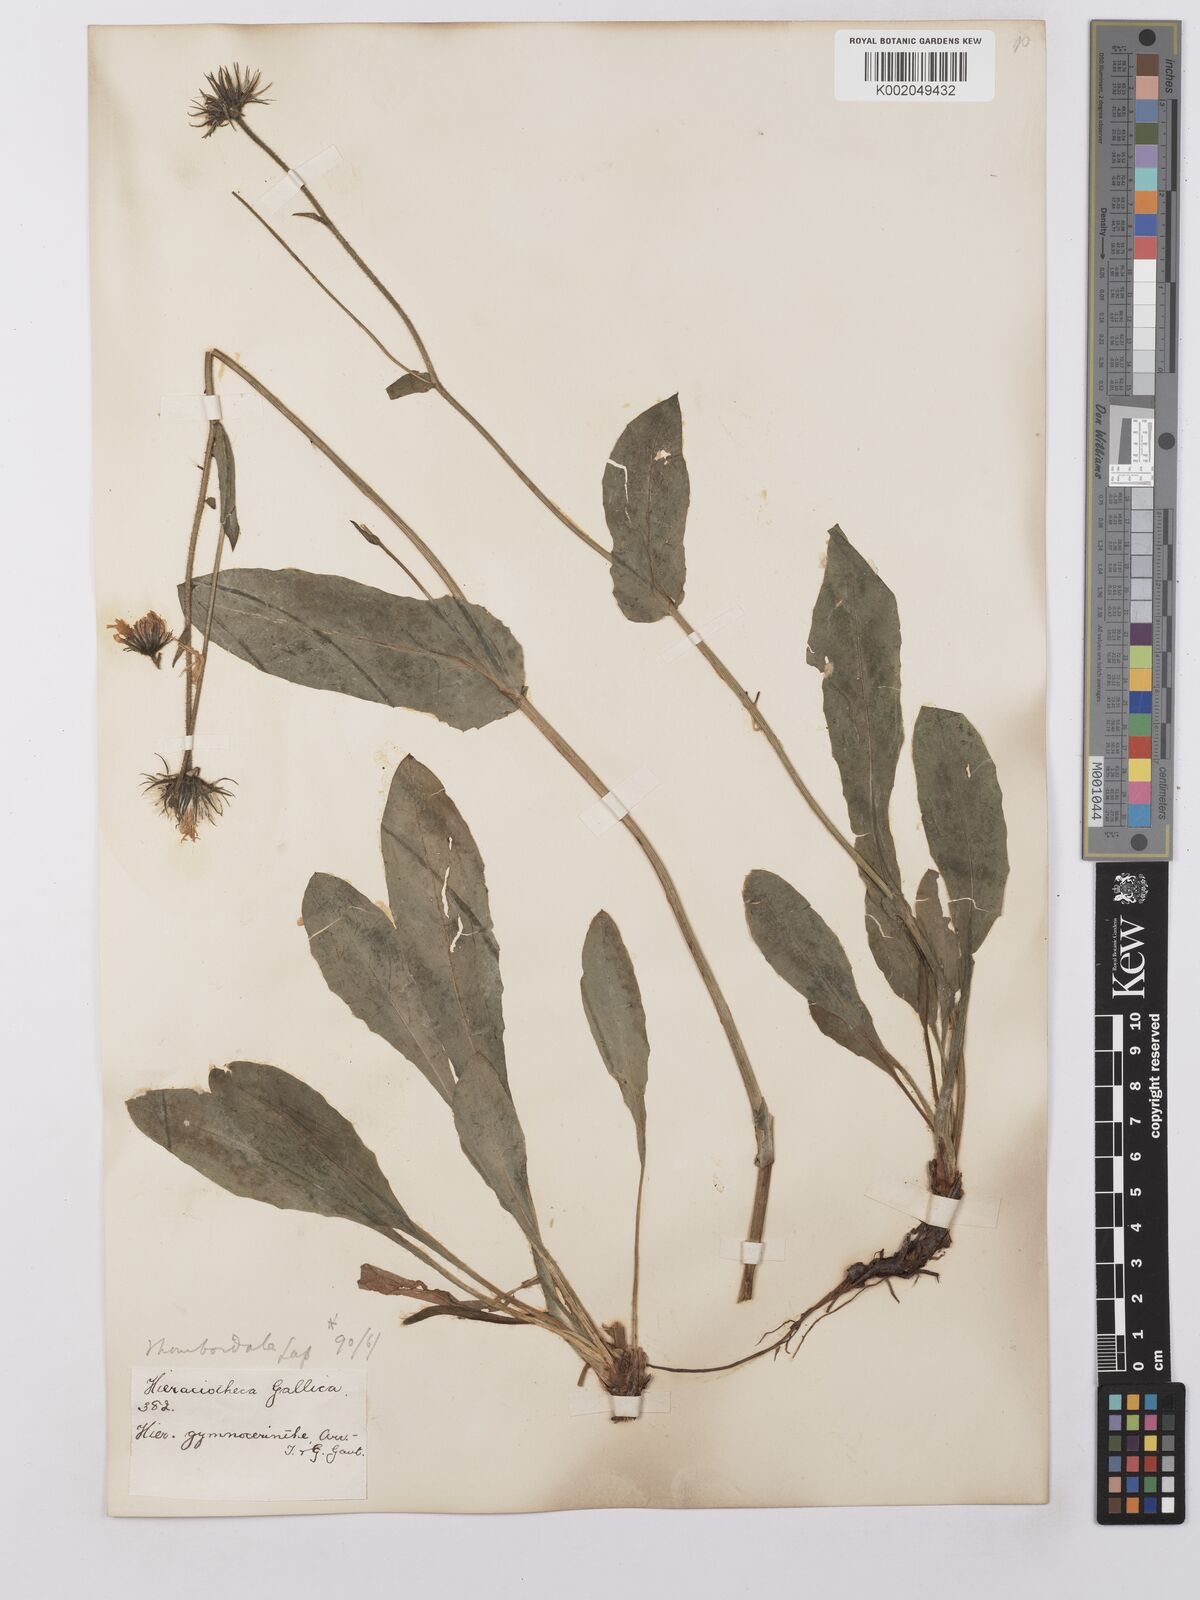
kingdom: Plantae
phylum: Tracheophyta
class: Magnoliopsida
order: Asterales
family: Asteraceae
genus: Hieracium
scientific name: Hieracium cerinthoides
